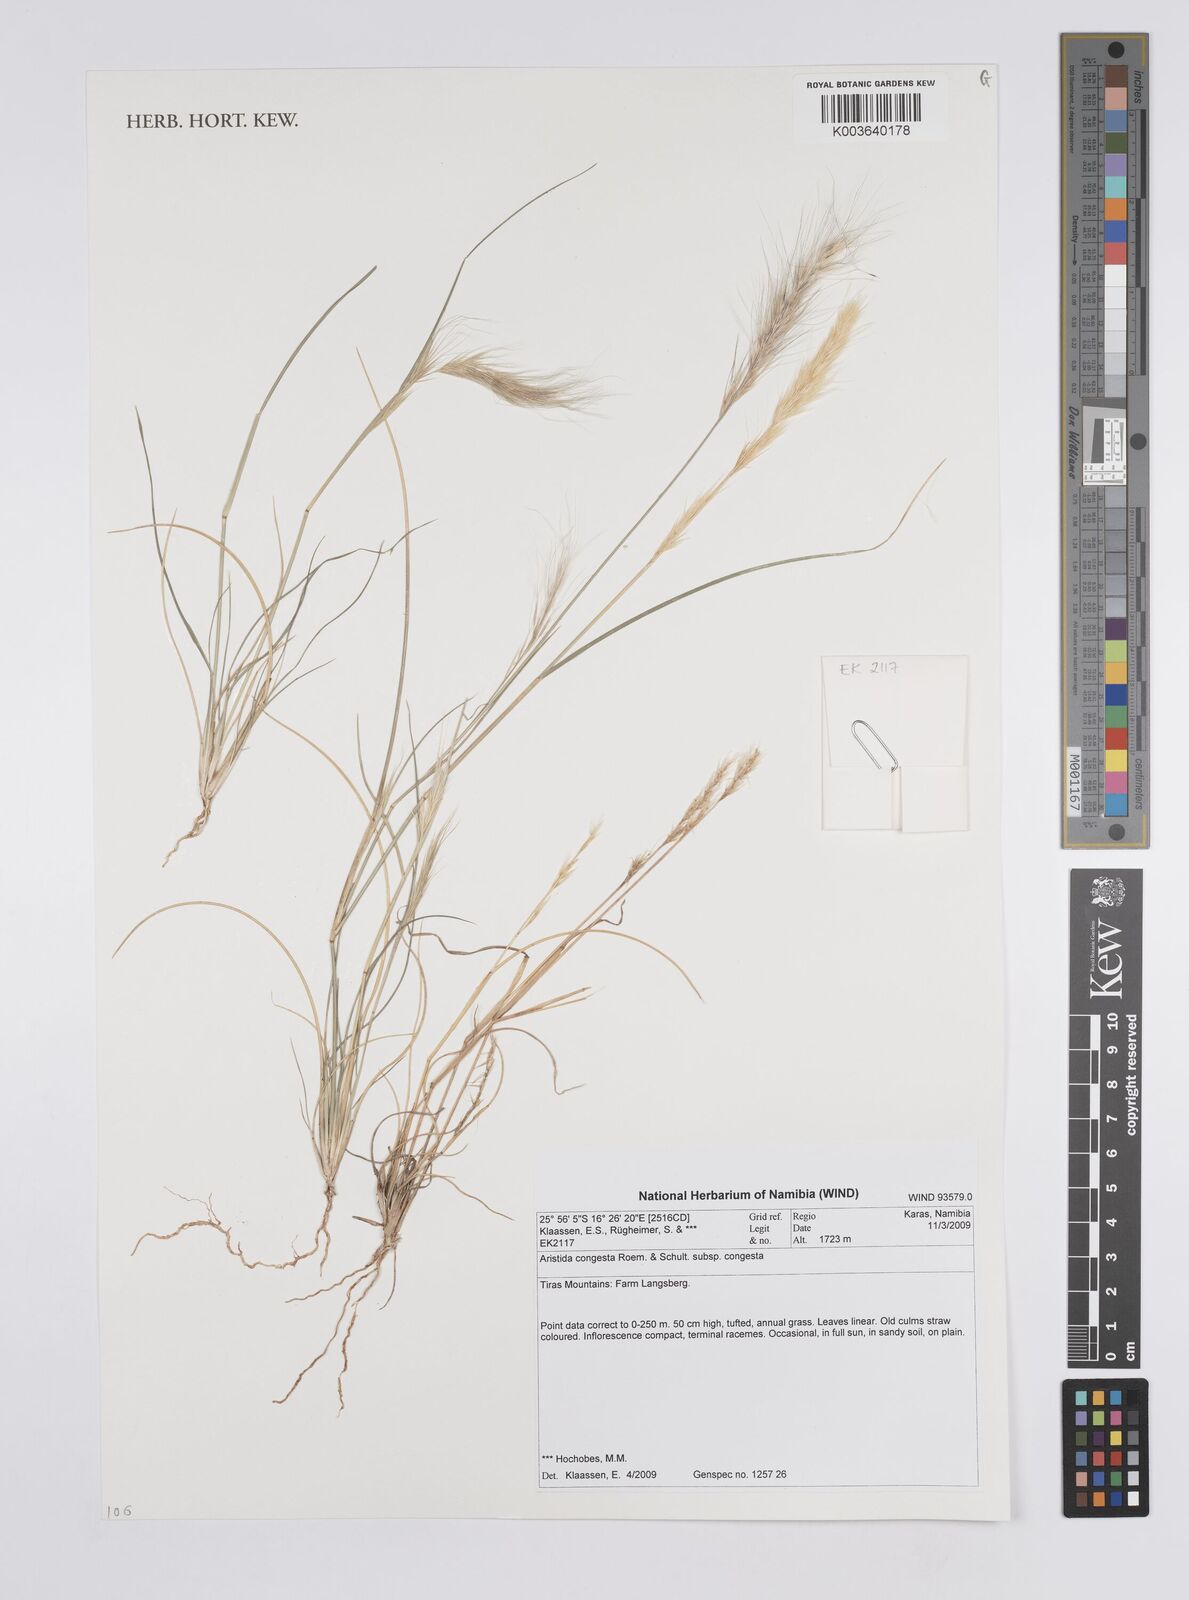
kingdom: Plantae
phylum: Tracheophyta
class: Liliopsida
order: Poales
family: Poaceae
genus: Aristida
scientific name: Aristida congesta
